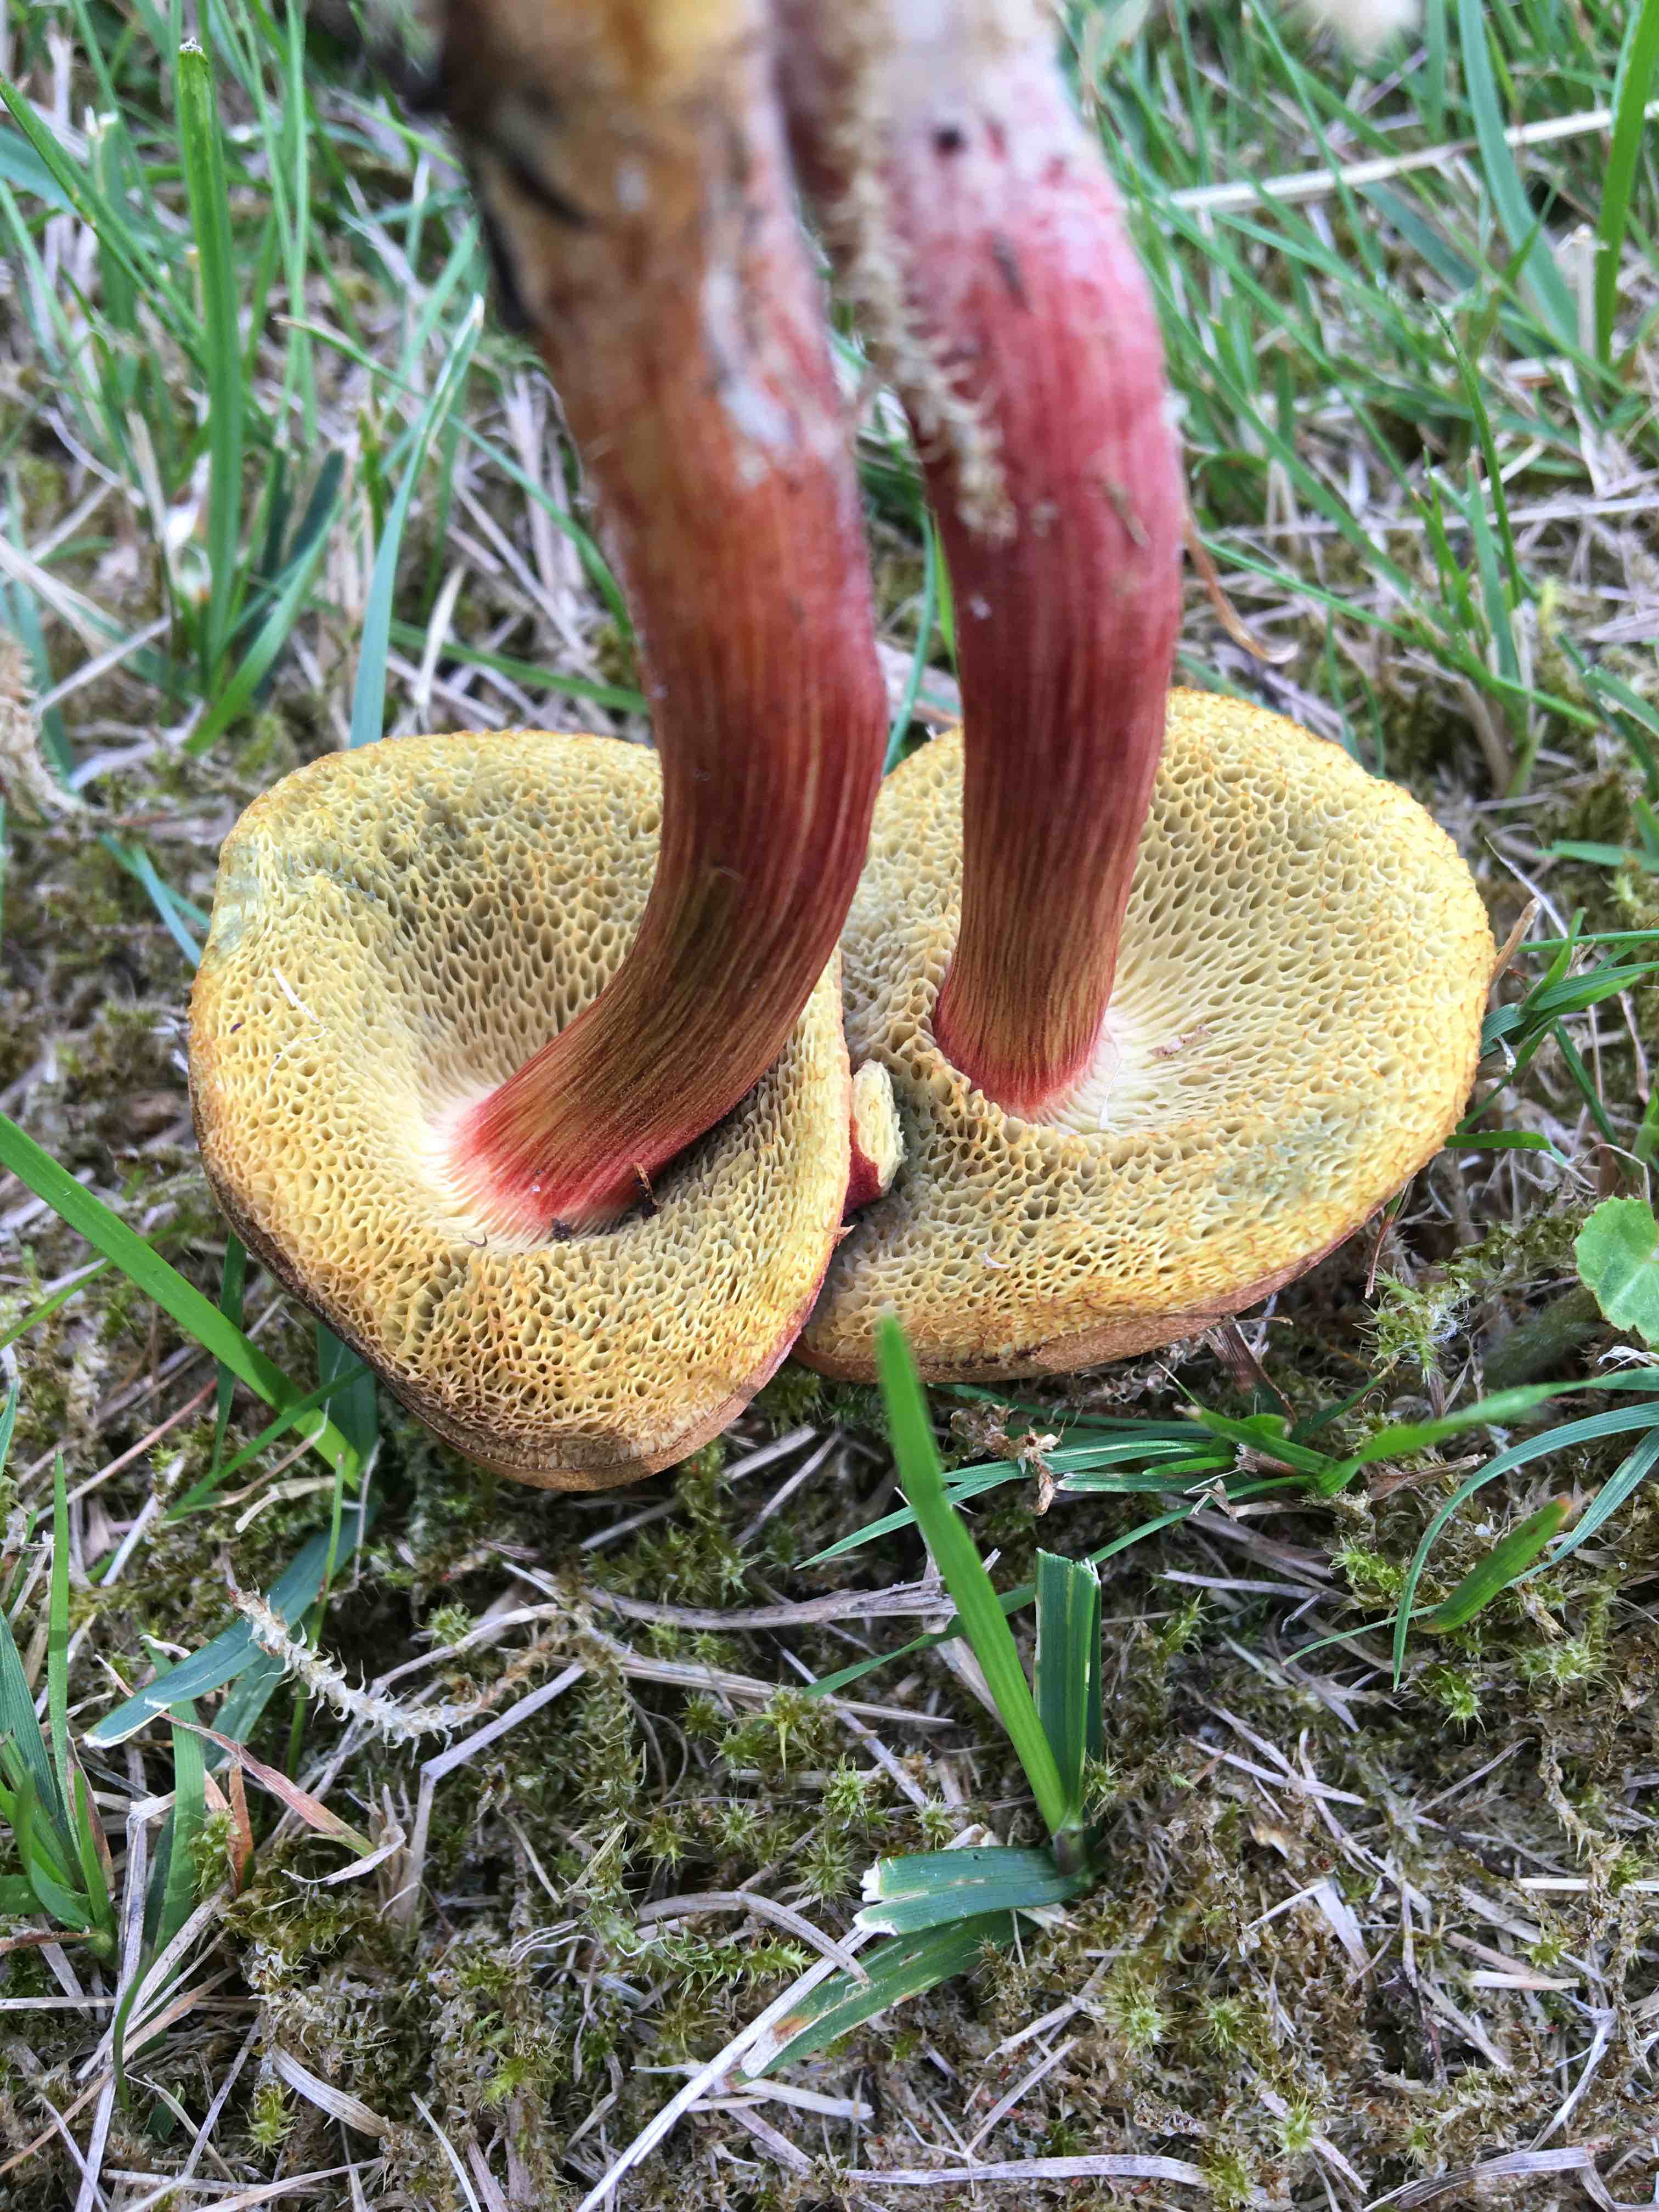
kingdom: Fungi
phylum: Basidiomycota
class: Agaricomycetes
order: Boletales
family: Boletaceae
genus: Xerocomellus
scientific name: Xerocomellus
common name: dværgrørhat
